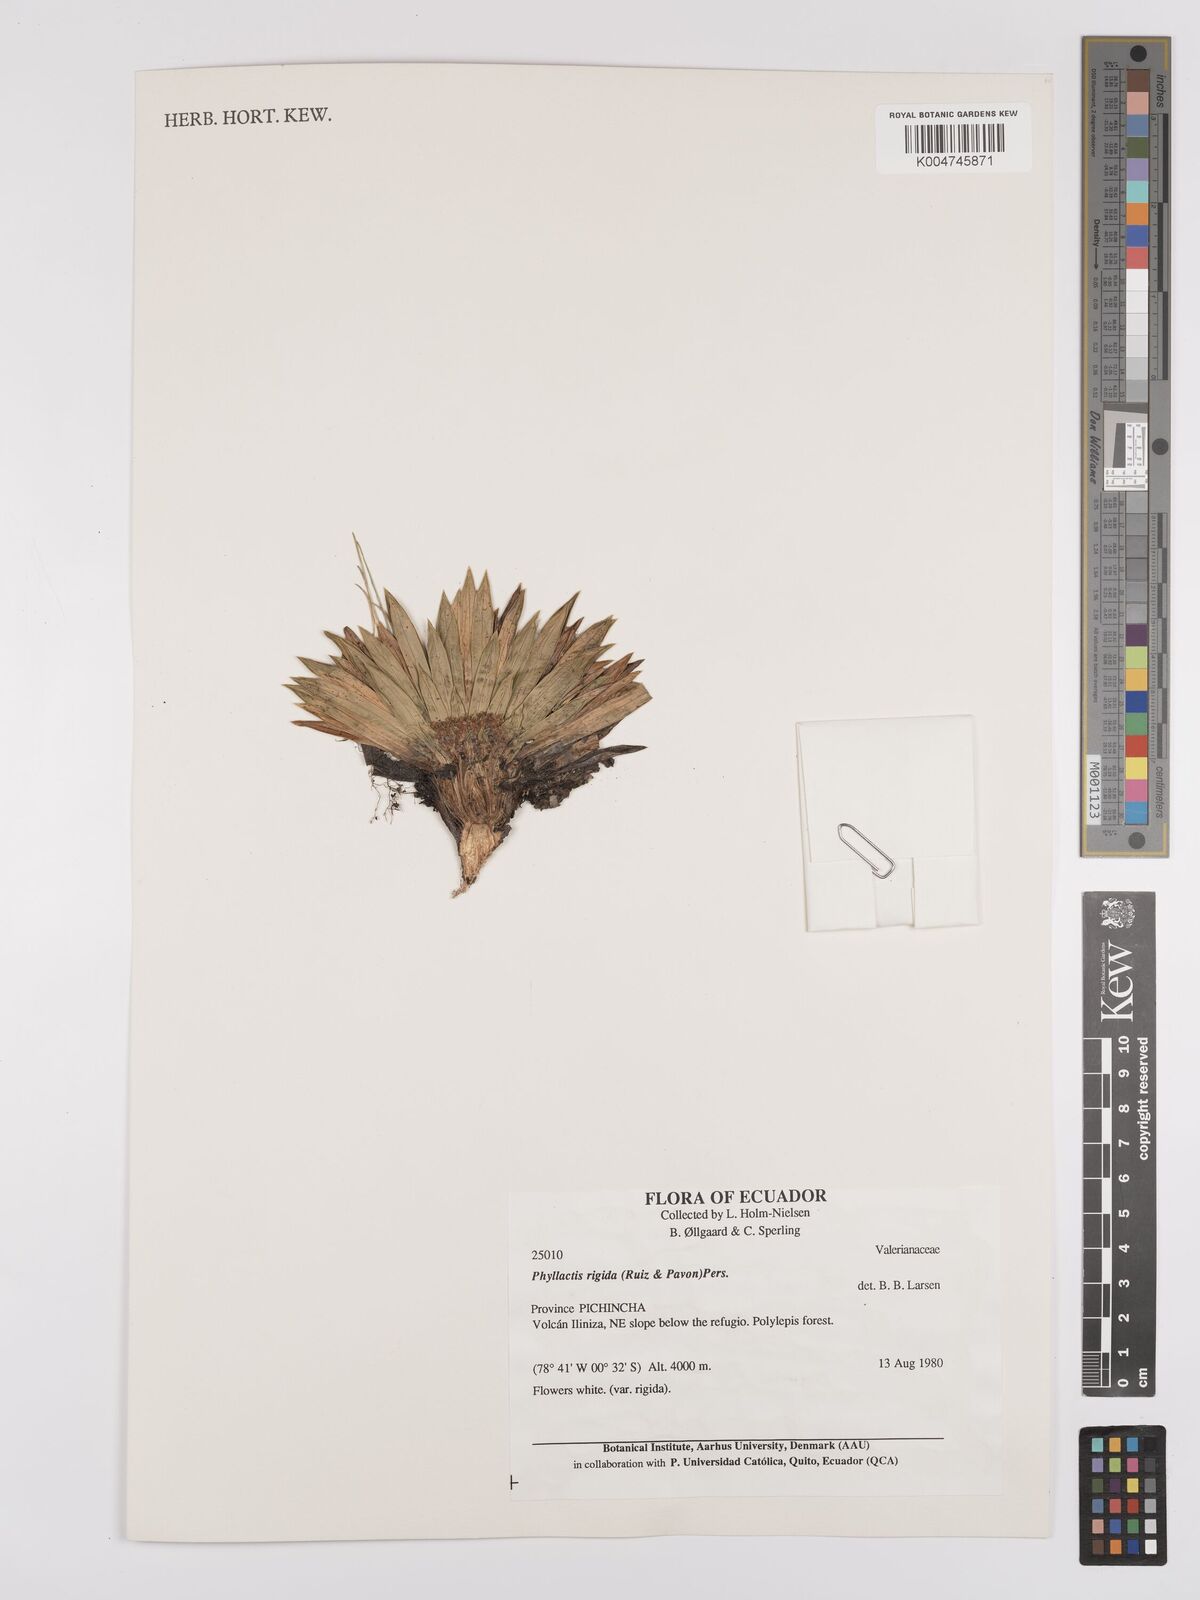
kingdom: Plantae
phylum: Tracheophyta
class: Magnoliopsida
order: Dipsacales
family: Caprifoliaceae
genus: Valeriana
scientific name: Valeriana rigida
